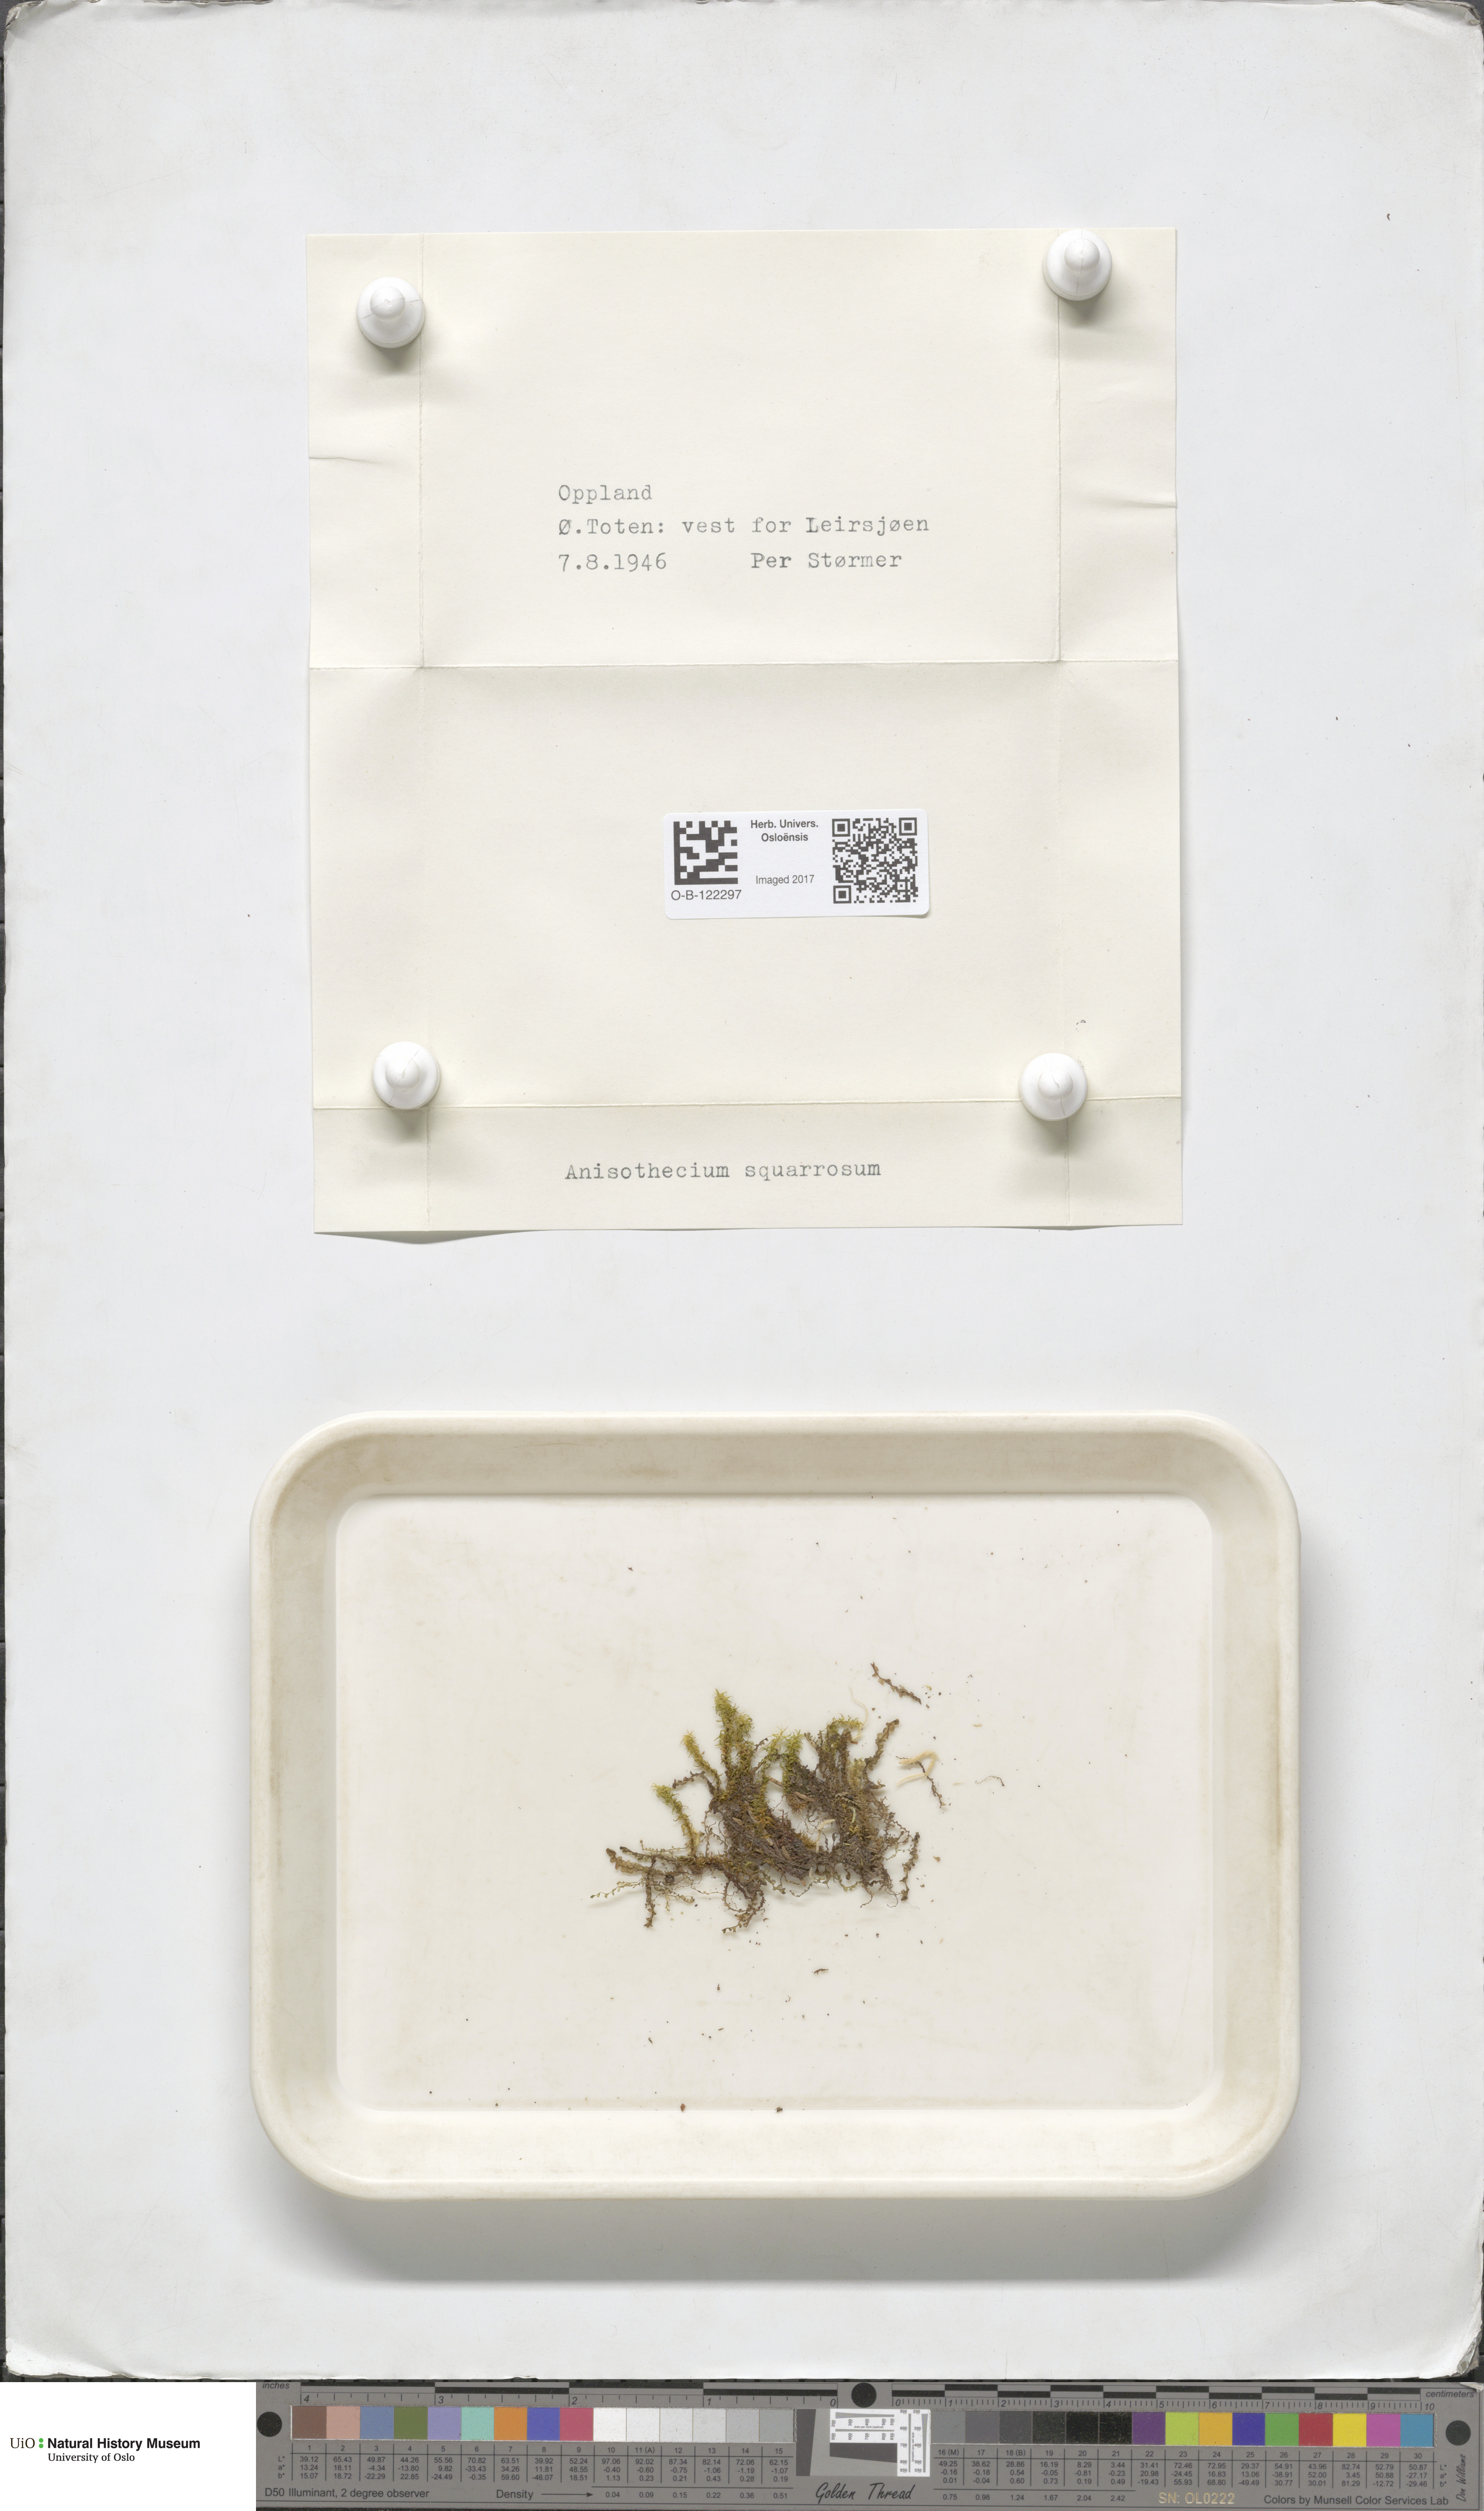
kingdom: Plantae
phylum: Bryophyta
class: Bryopsida
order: Dicranales
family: Aongstroemiaceae
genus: Diobelonella
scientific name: Diobelonella palustris
